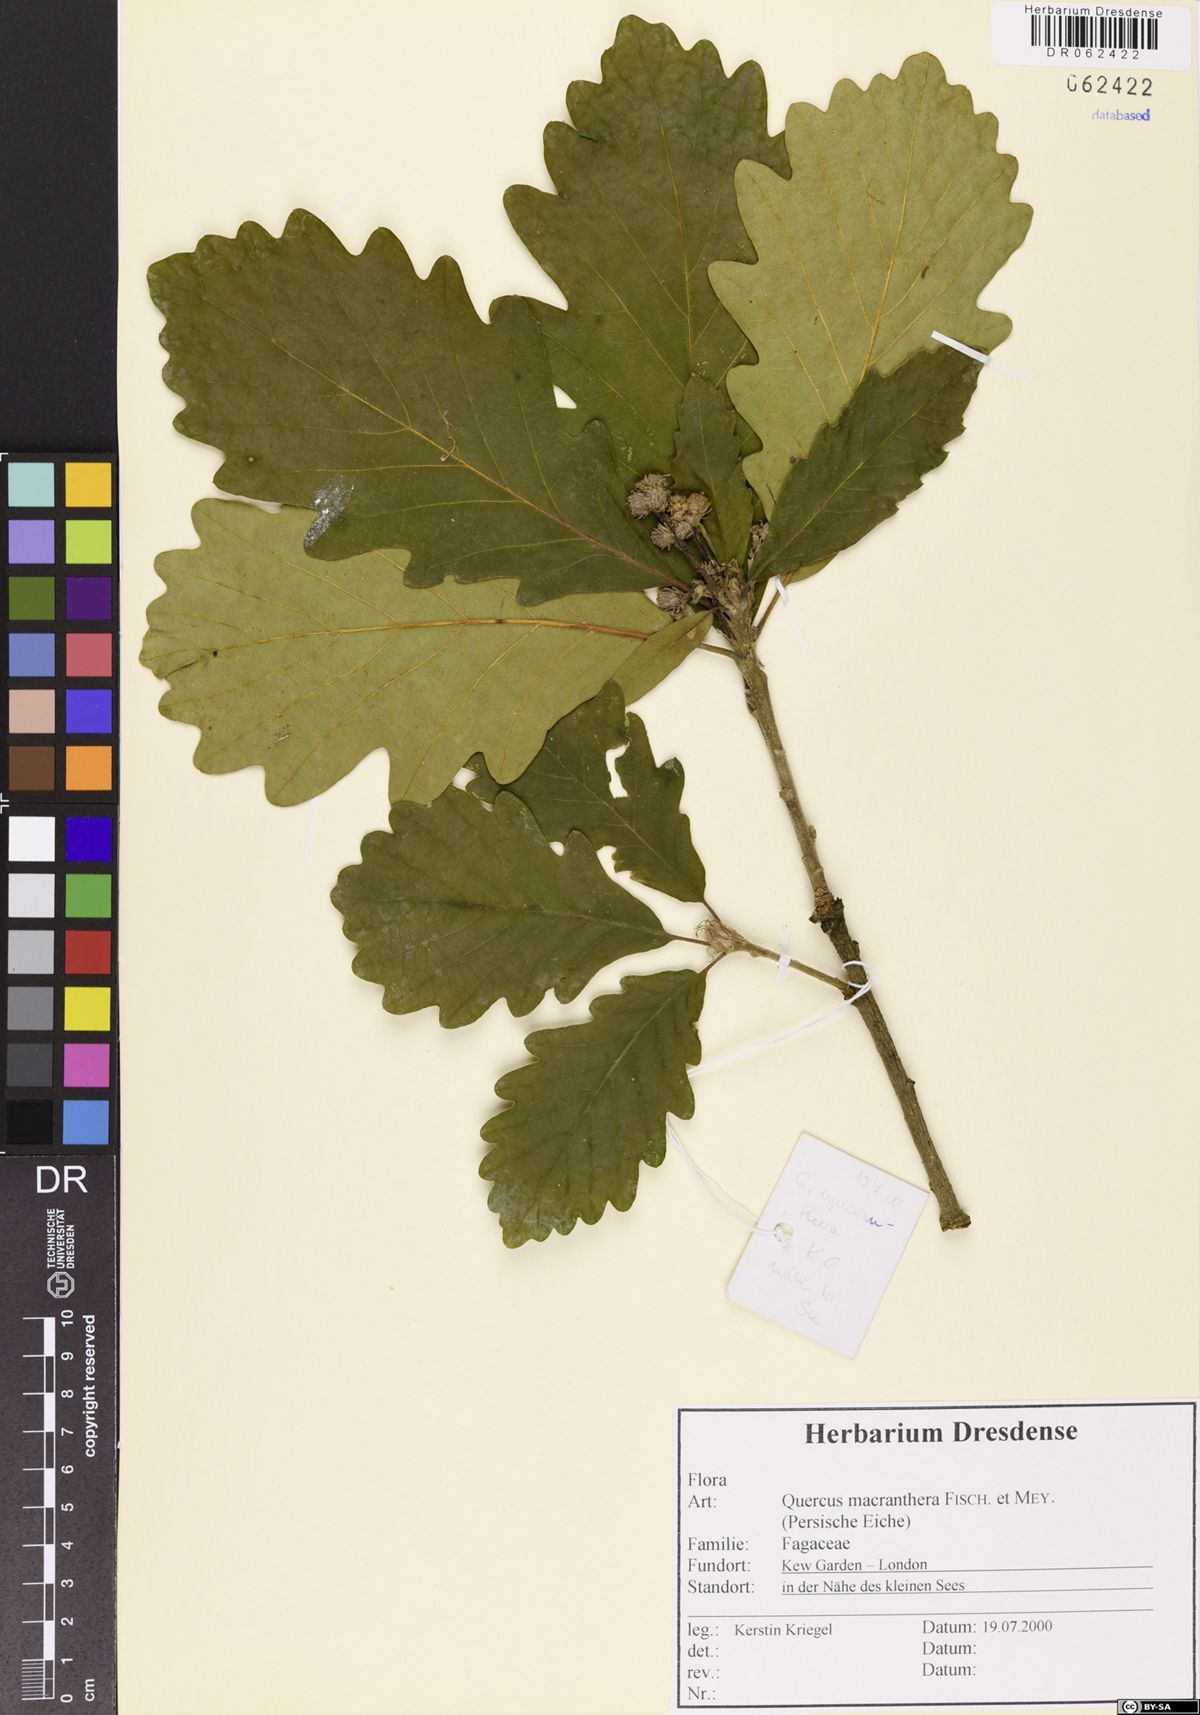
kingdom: Plantae
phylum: Tracheophyta
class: Magnoliopsida
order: Fagales
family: Fagaceae
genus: Quercus
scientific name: Quercus macranthera
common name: Caucasian oak
